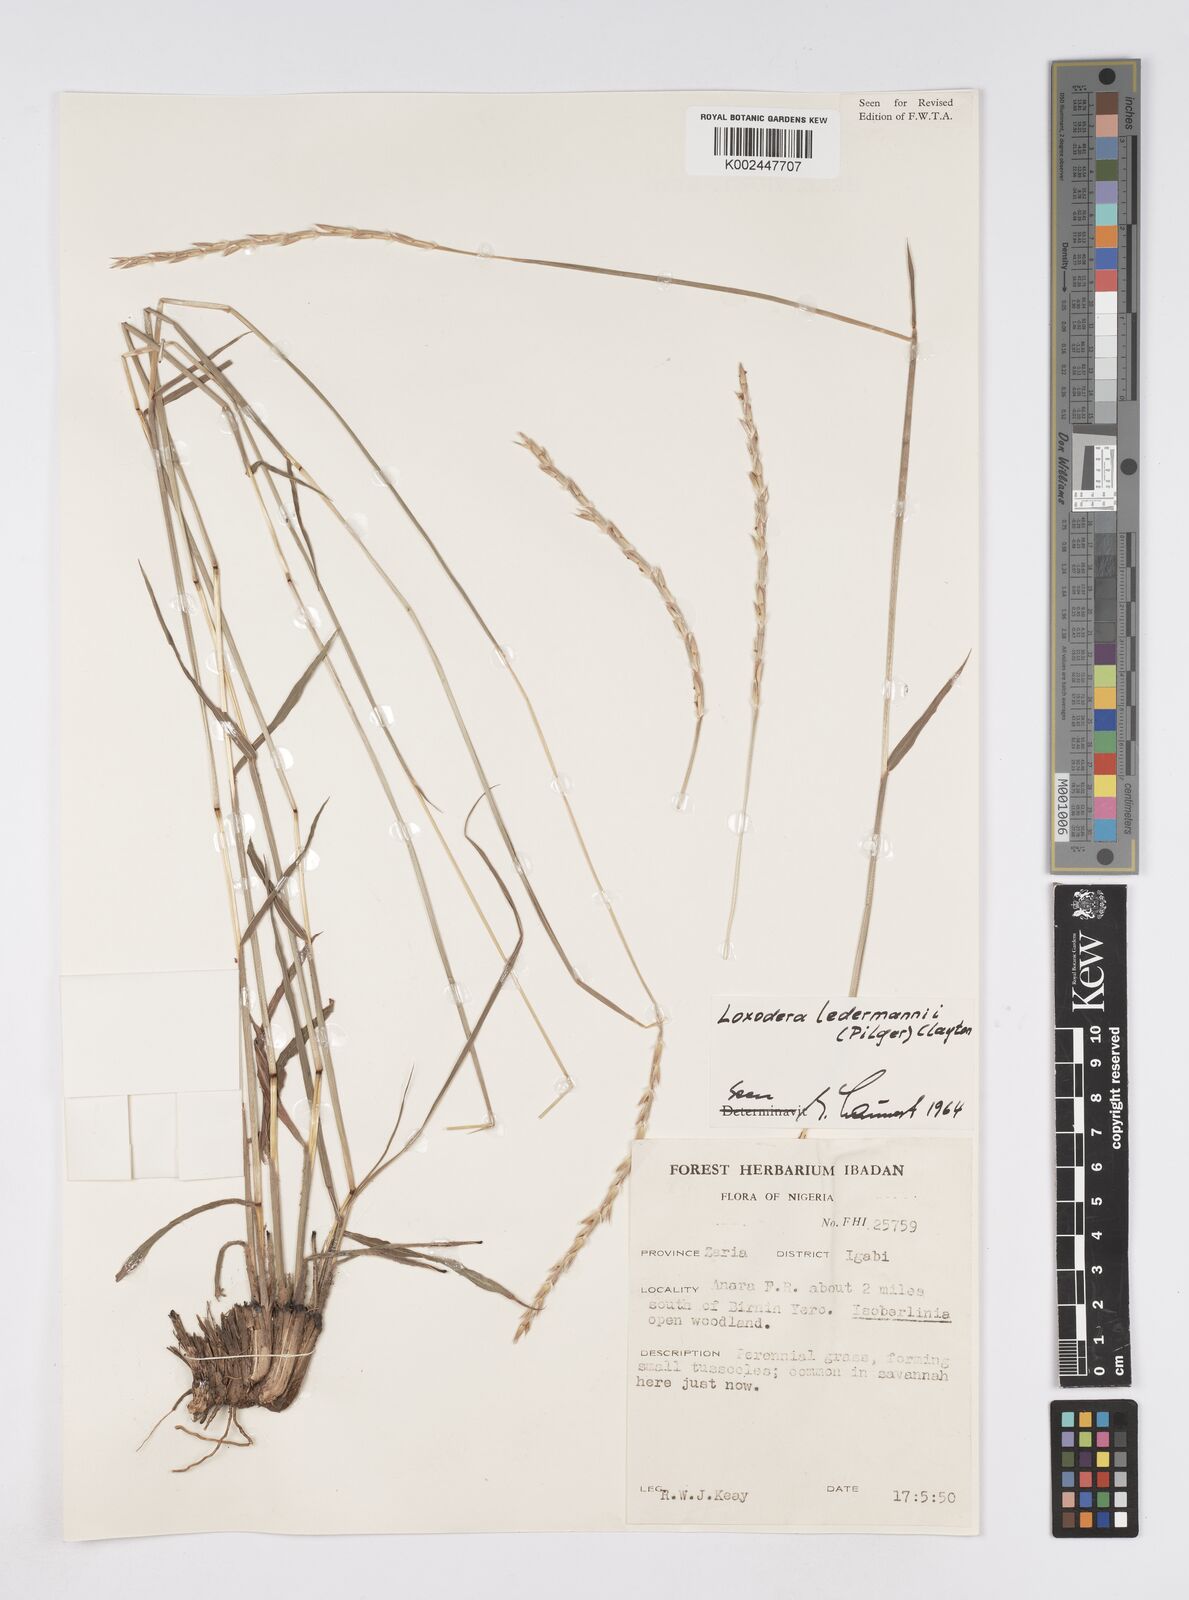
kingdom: Plantae
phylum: Tracheophyta
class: Liliopsida
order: Poales
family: Poaceae
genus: Loxodera
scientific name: Loxodera ledermannii
